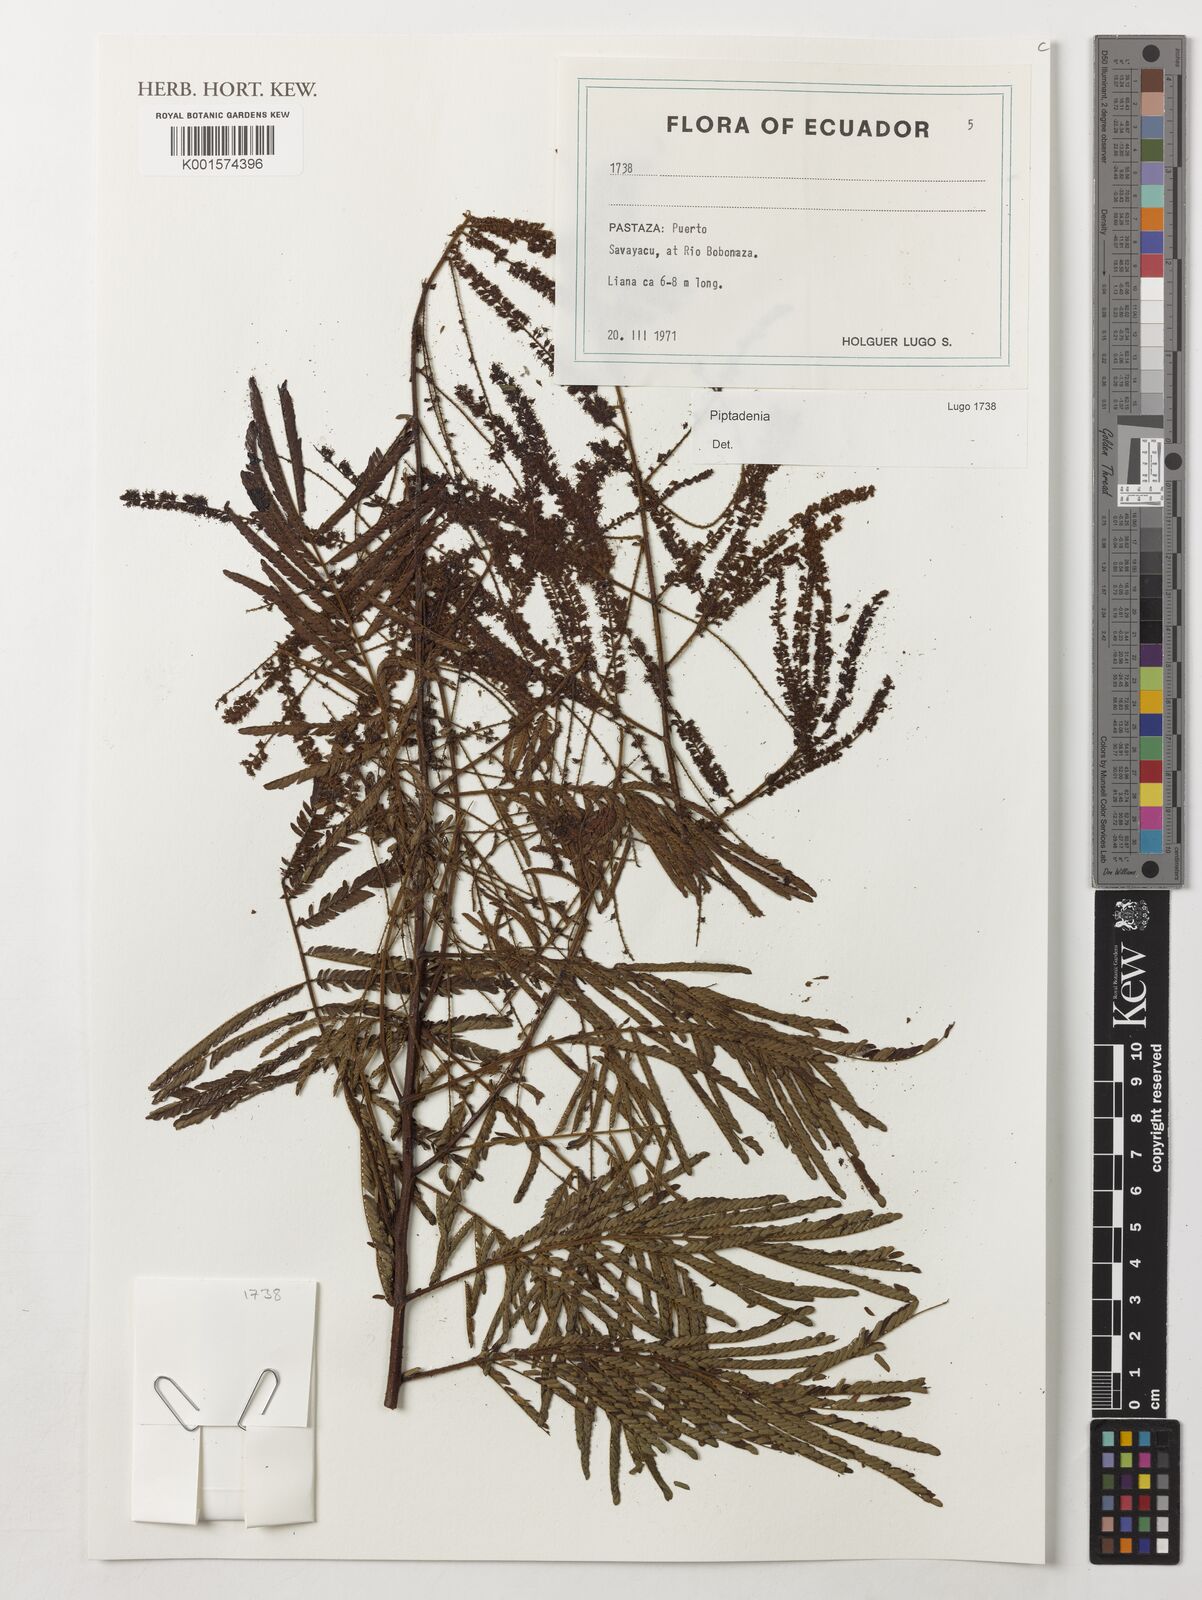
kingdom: Plantae
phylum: Tracheophyta
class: Magnoliopsida
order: Fabales
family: Fabaceae
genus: Piptadenia
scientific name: Piptadenia
